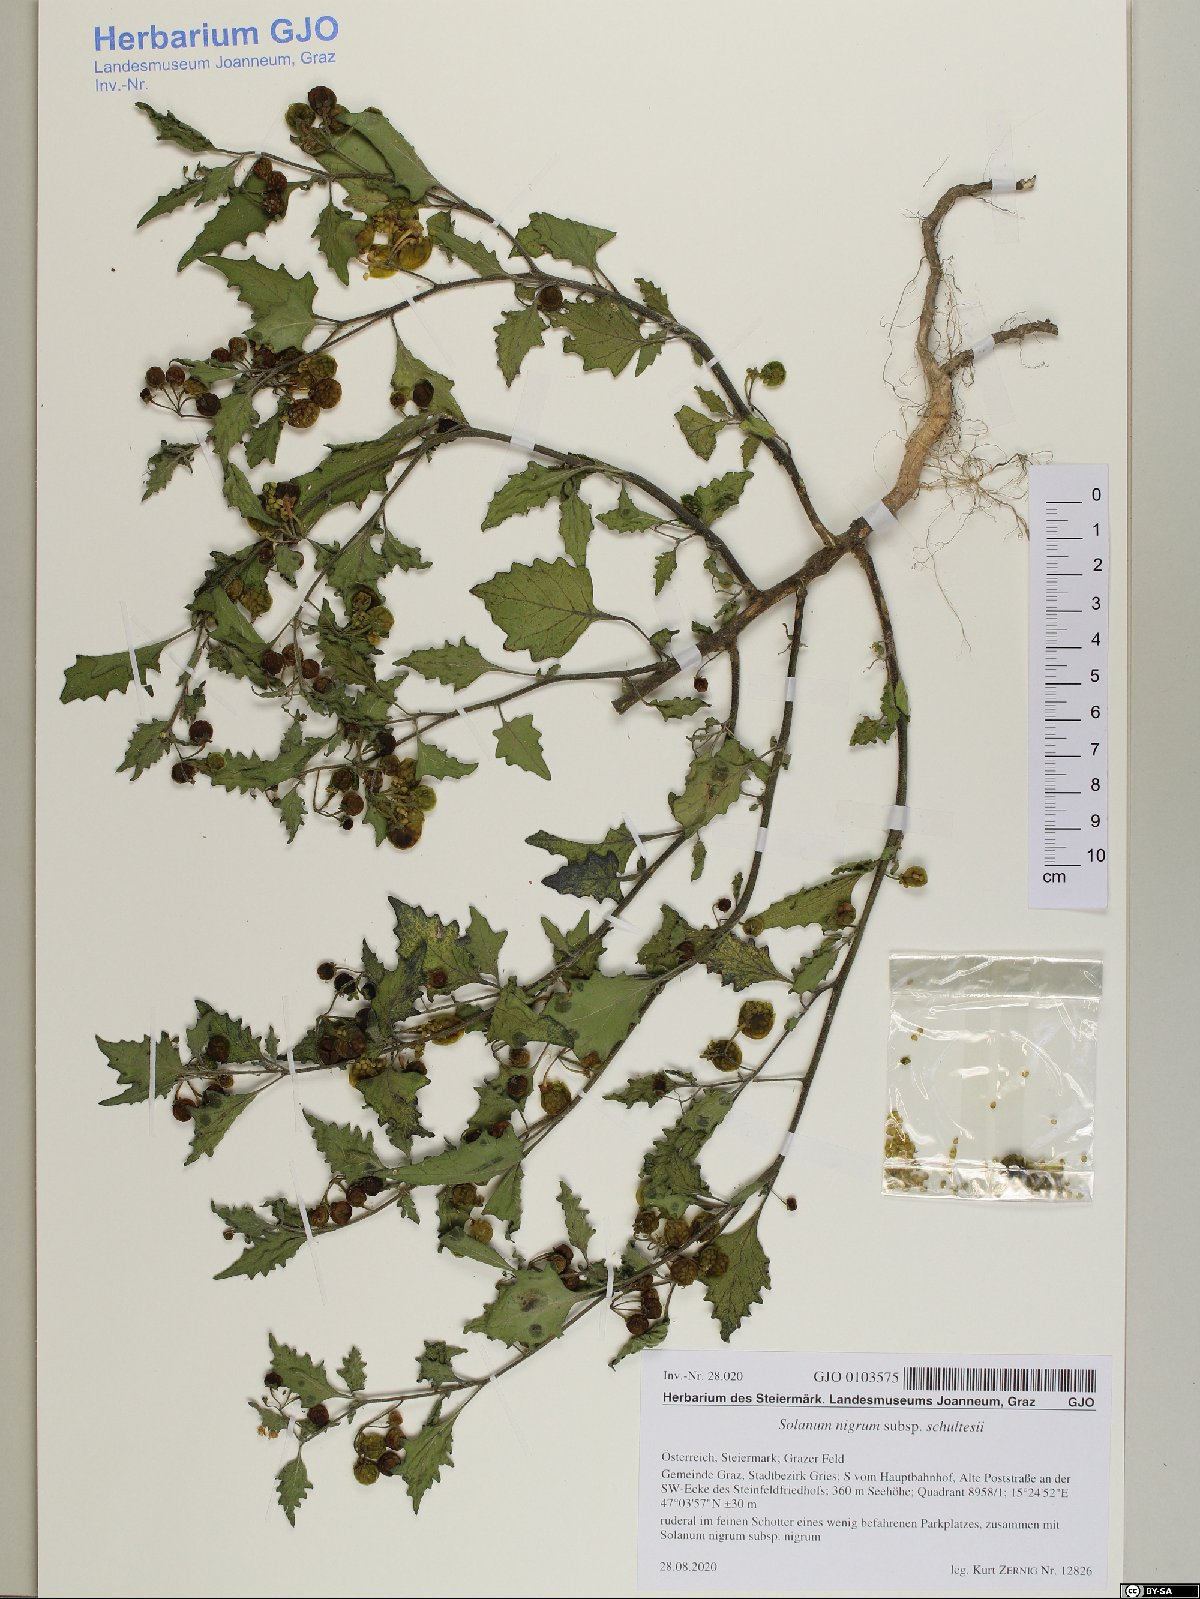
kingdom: Plantae
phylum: Tracheophyta
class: Magnoliopsida
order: Solanales
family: Solanaceae
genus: Solanum
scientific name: Solanum decipiens
